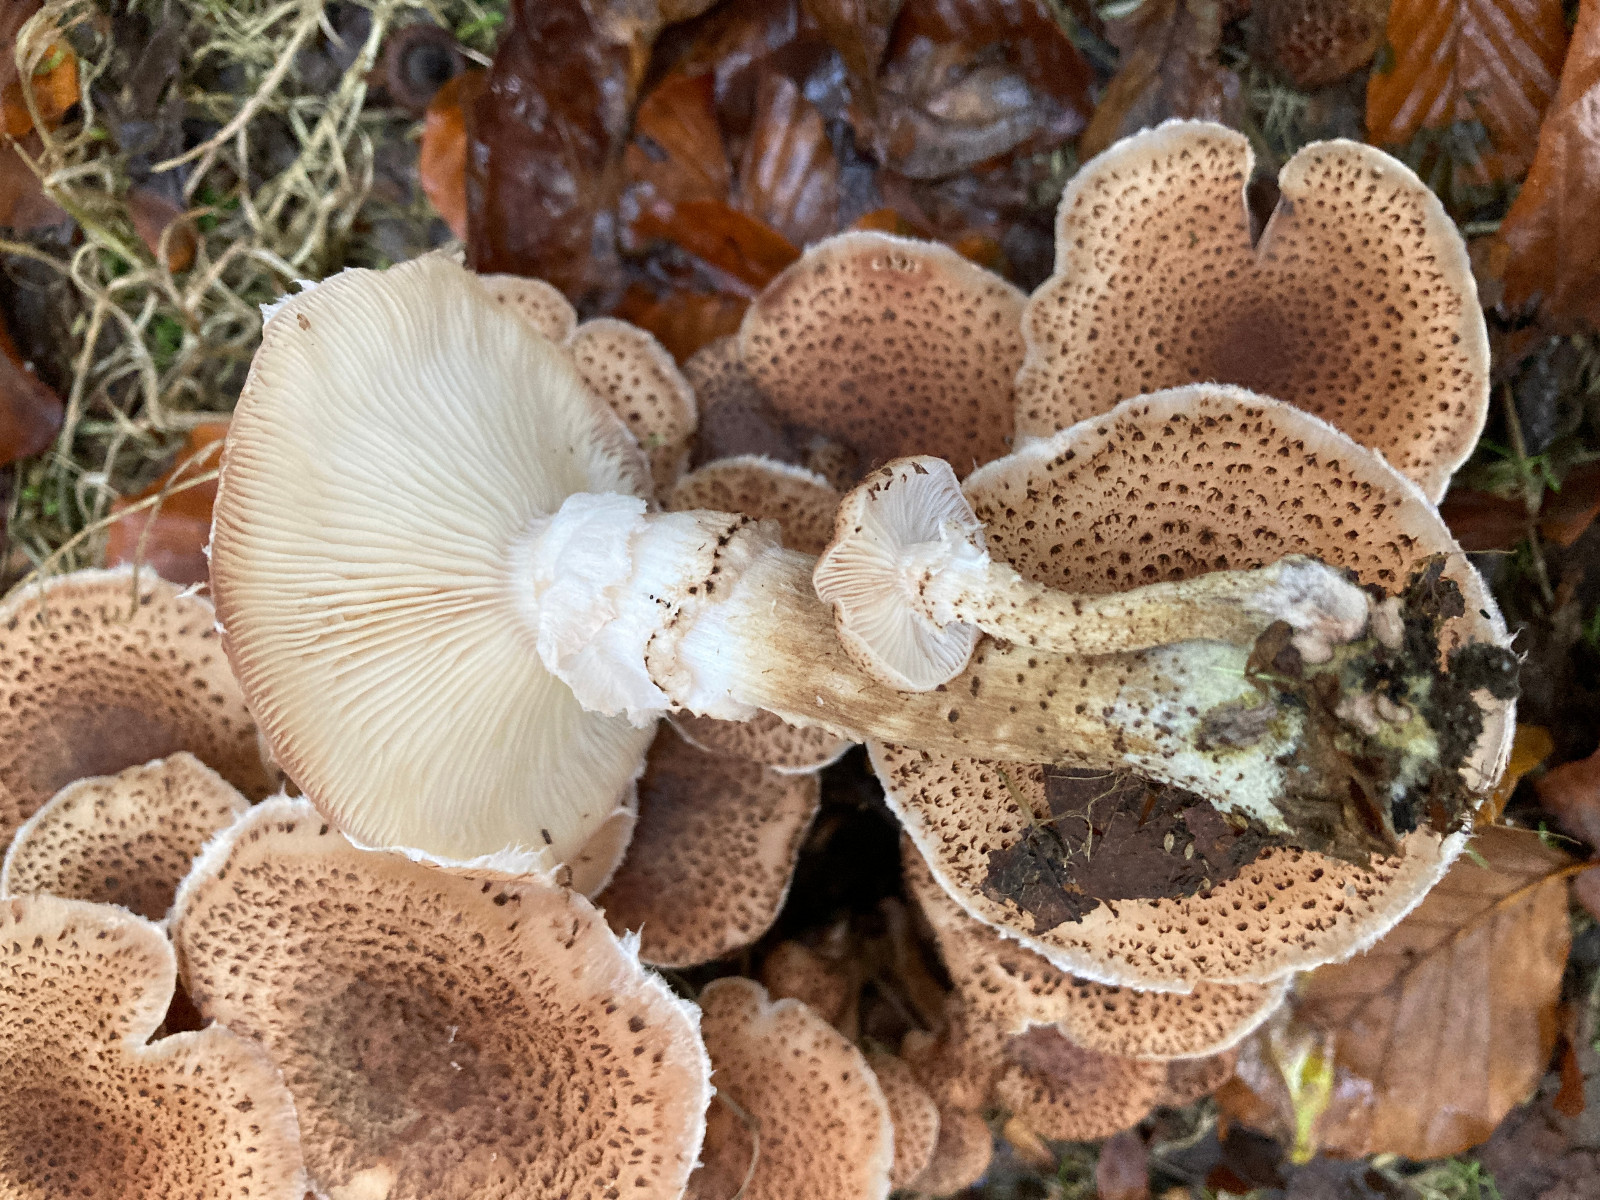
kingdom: Fungi
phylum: Basidiomycota
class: Agaricomycetes
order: Agaricales
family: Physalacriaceae
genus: Armillaria
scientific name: Armillaria ostoyae
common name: mørk honningsvamp
